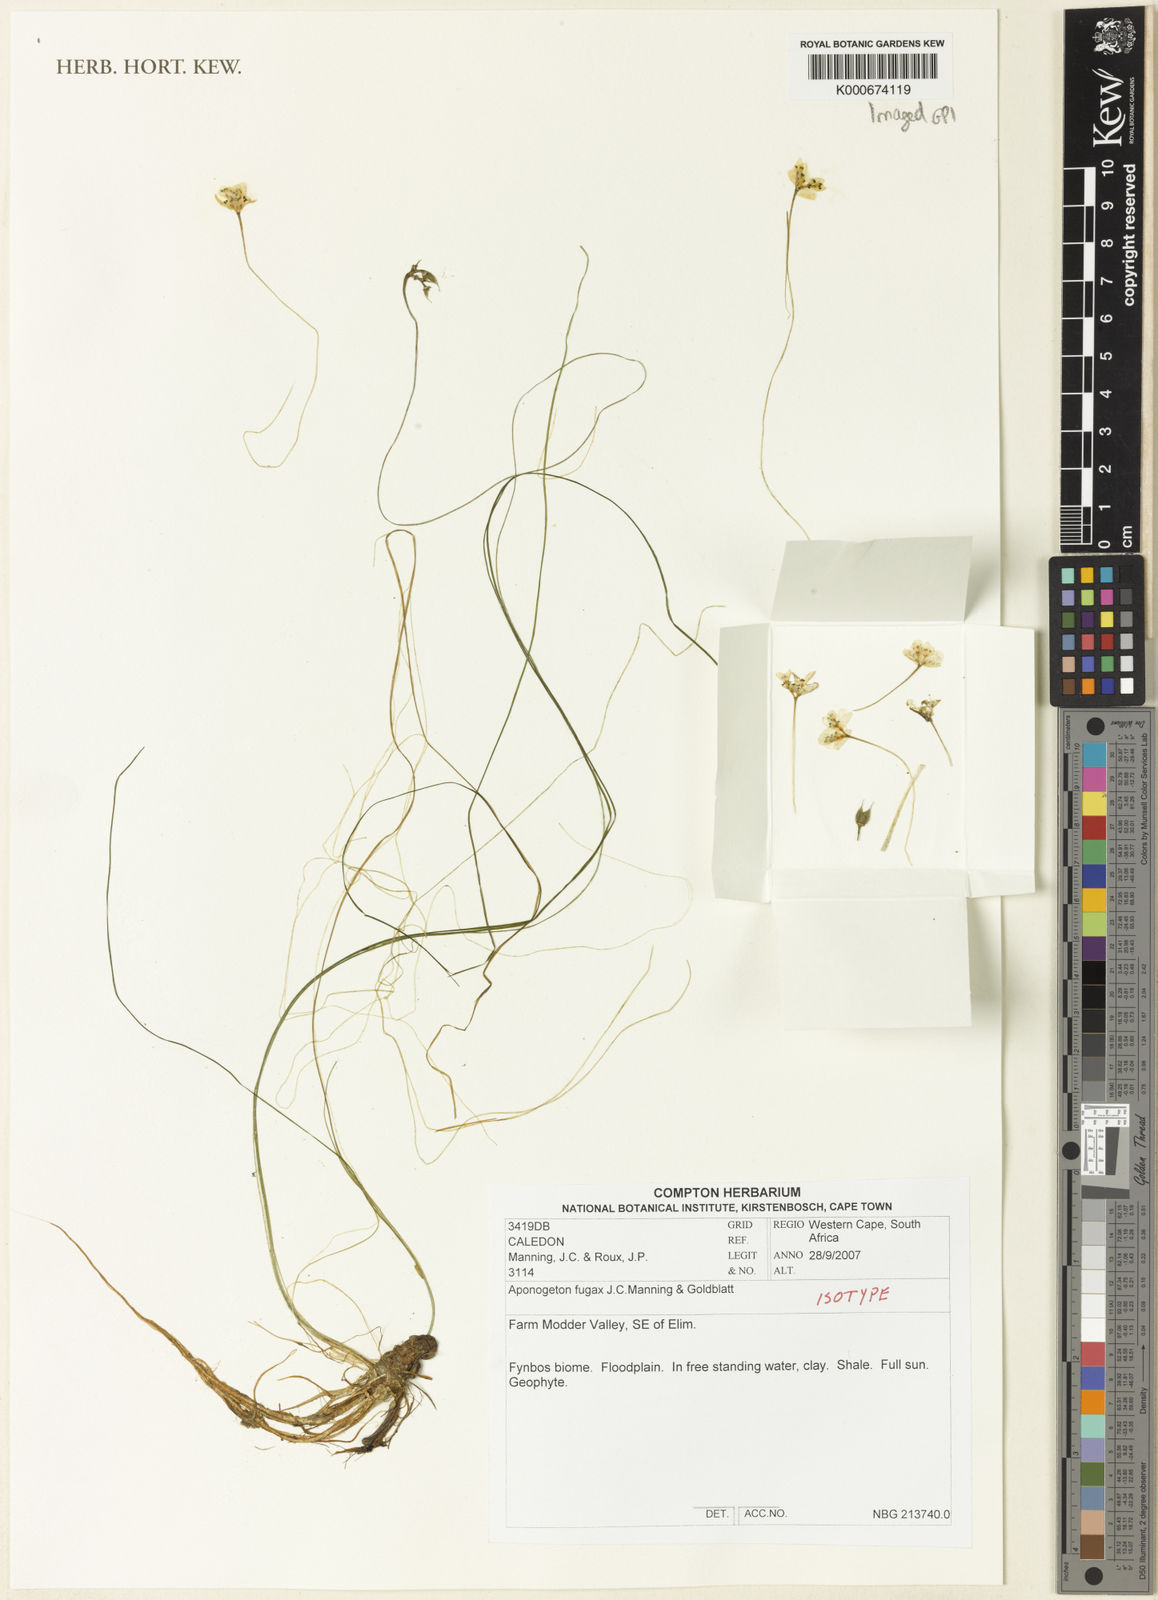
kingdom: Plantae
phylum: Tracheophyta
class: Liliopsida
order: Alismatales
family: Aponogetonaceae
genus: Aponogeton
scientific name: Aponogeton fugax
